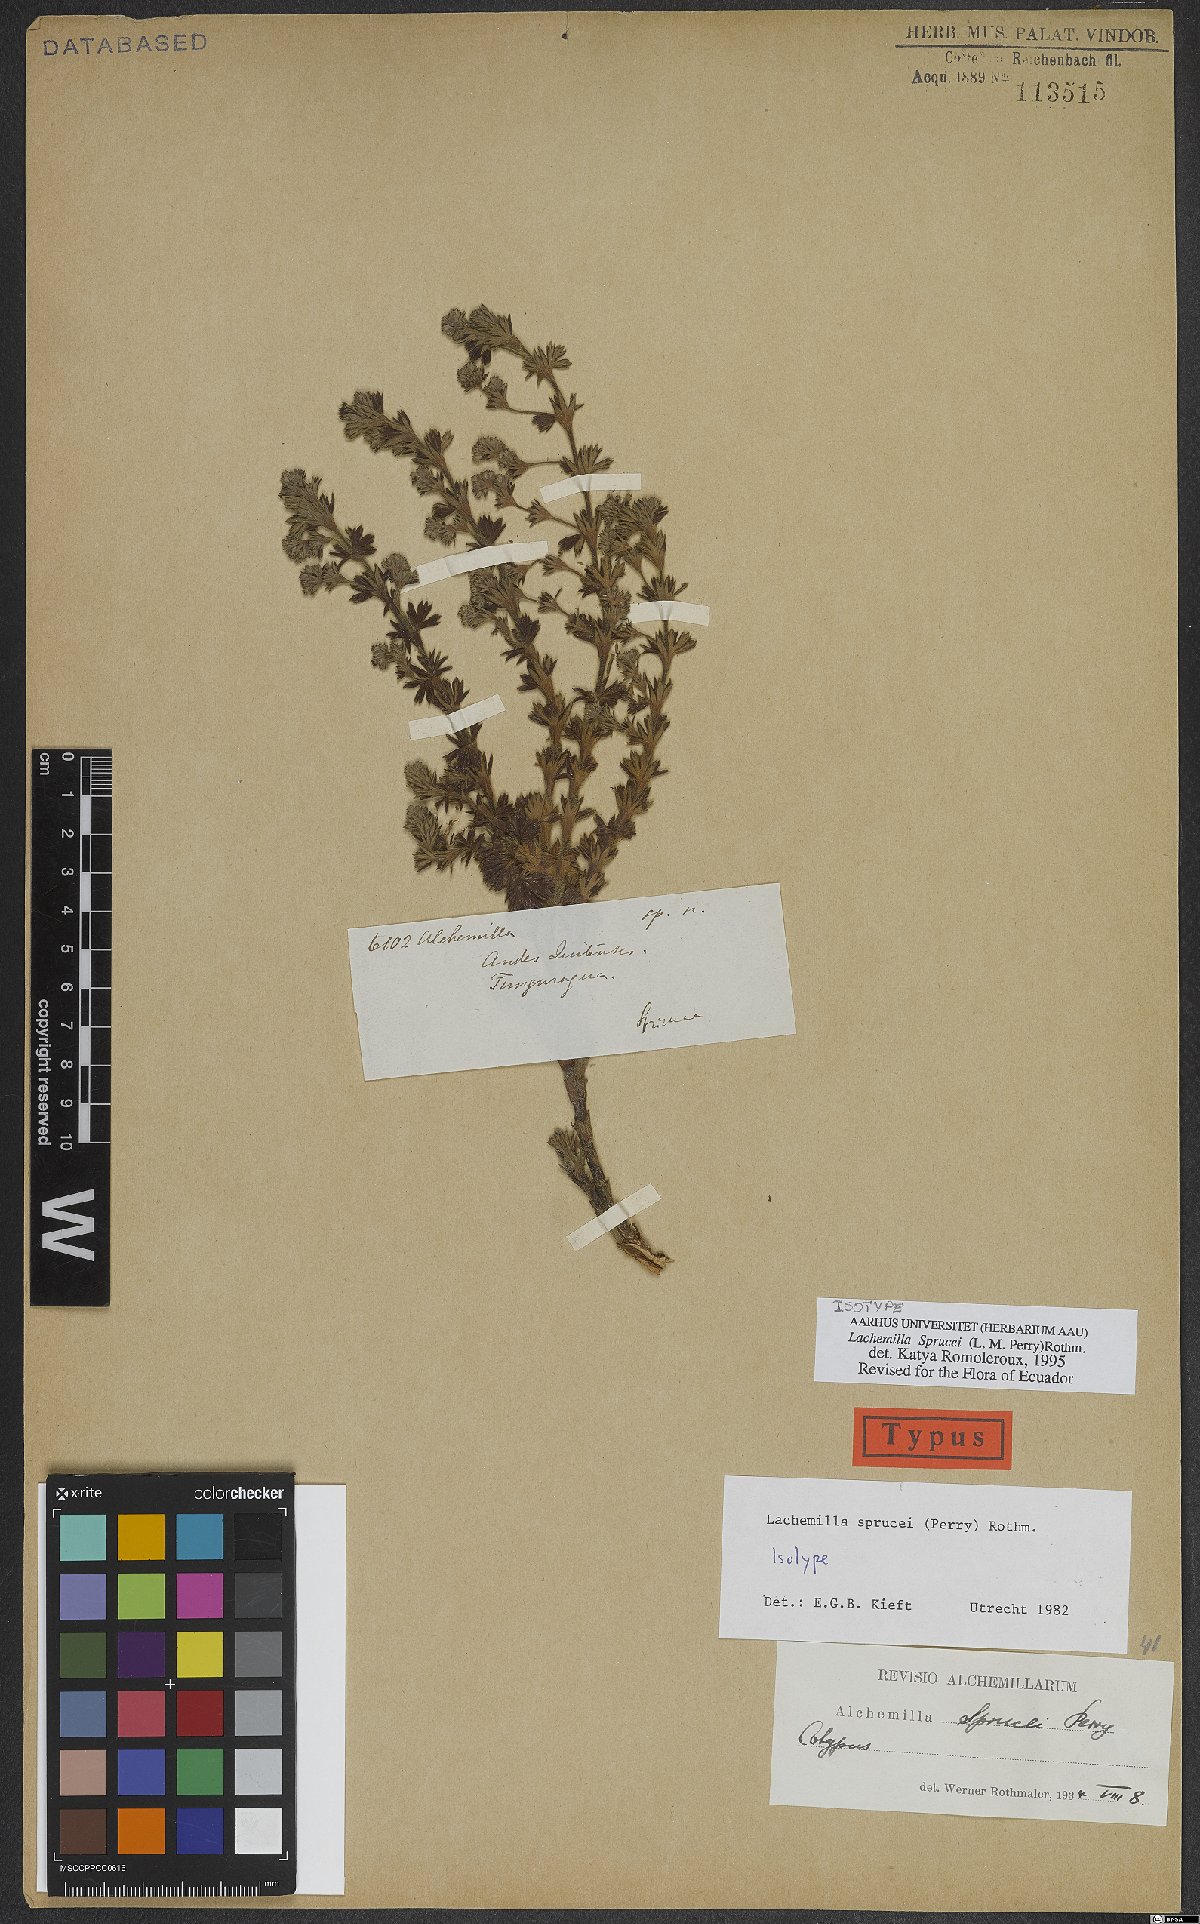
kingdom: Plantae
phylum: Tracheophyta
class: Magnoliopsida
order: Rosales
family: Rosaceae
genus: Lachemilla
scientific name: Lachemilla sibbaldiifolia
